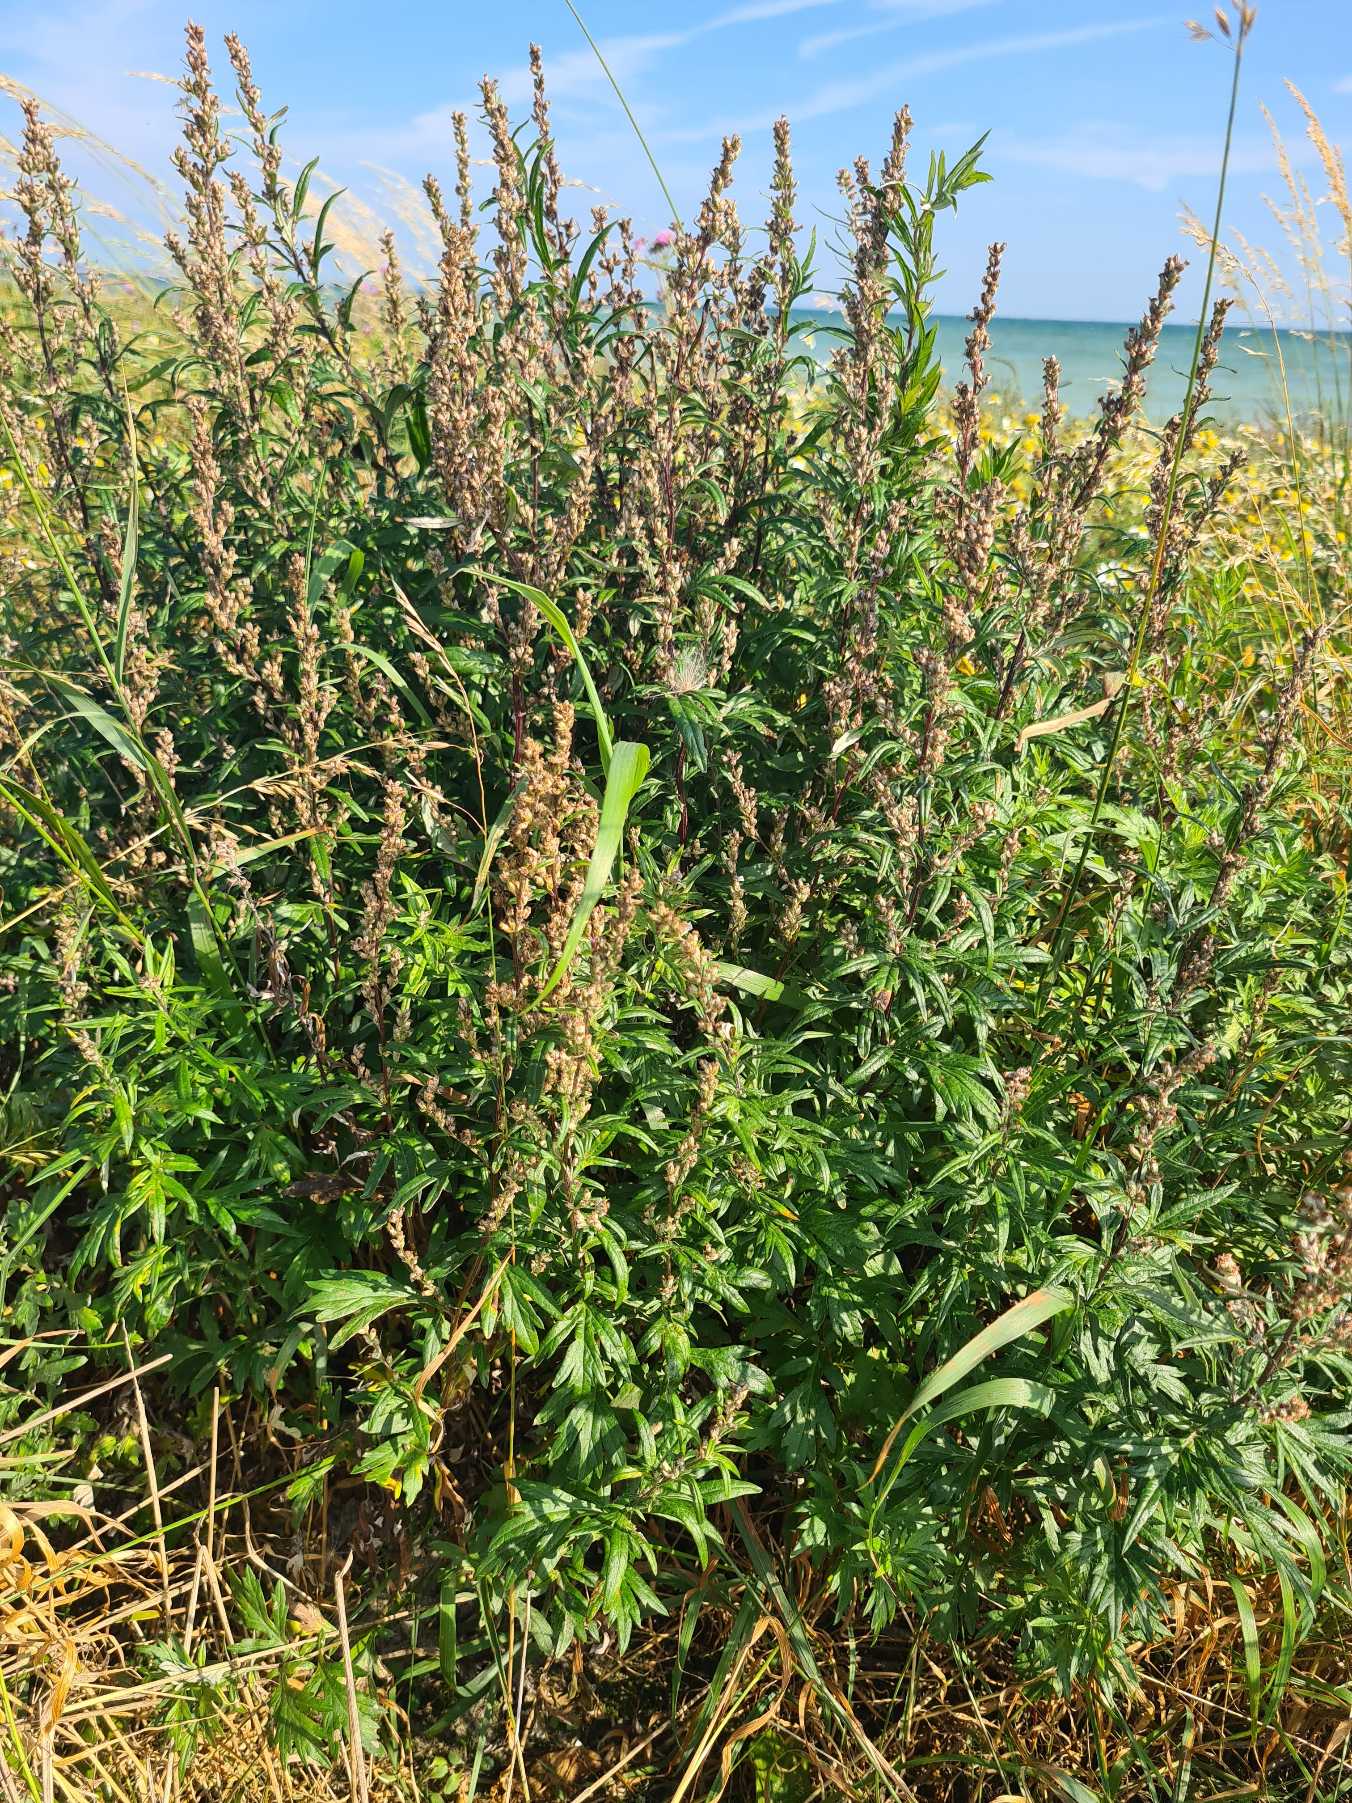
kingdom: Plantae
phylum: Tracheophyta
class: Magnoliopsida
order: Asterales
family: Asteraceae
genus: Artemisia
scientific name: Artemisia vulgaris
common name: Grå-bynke
